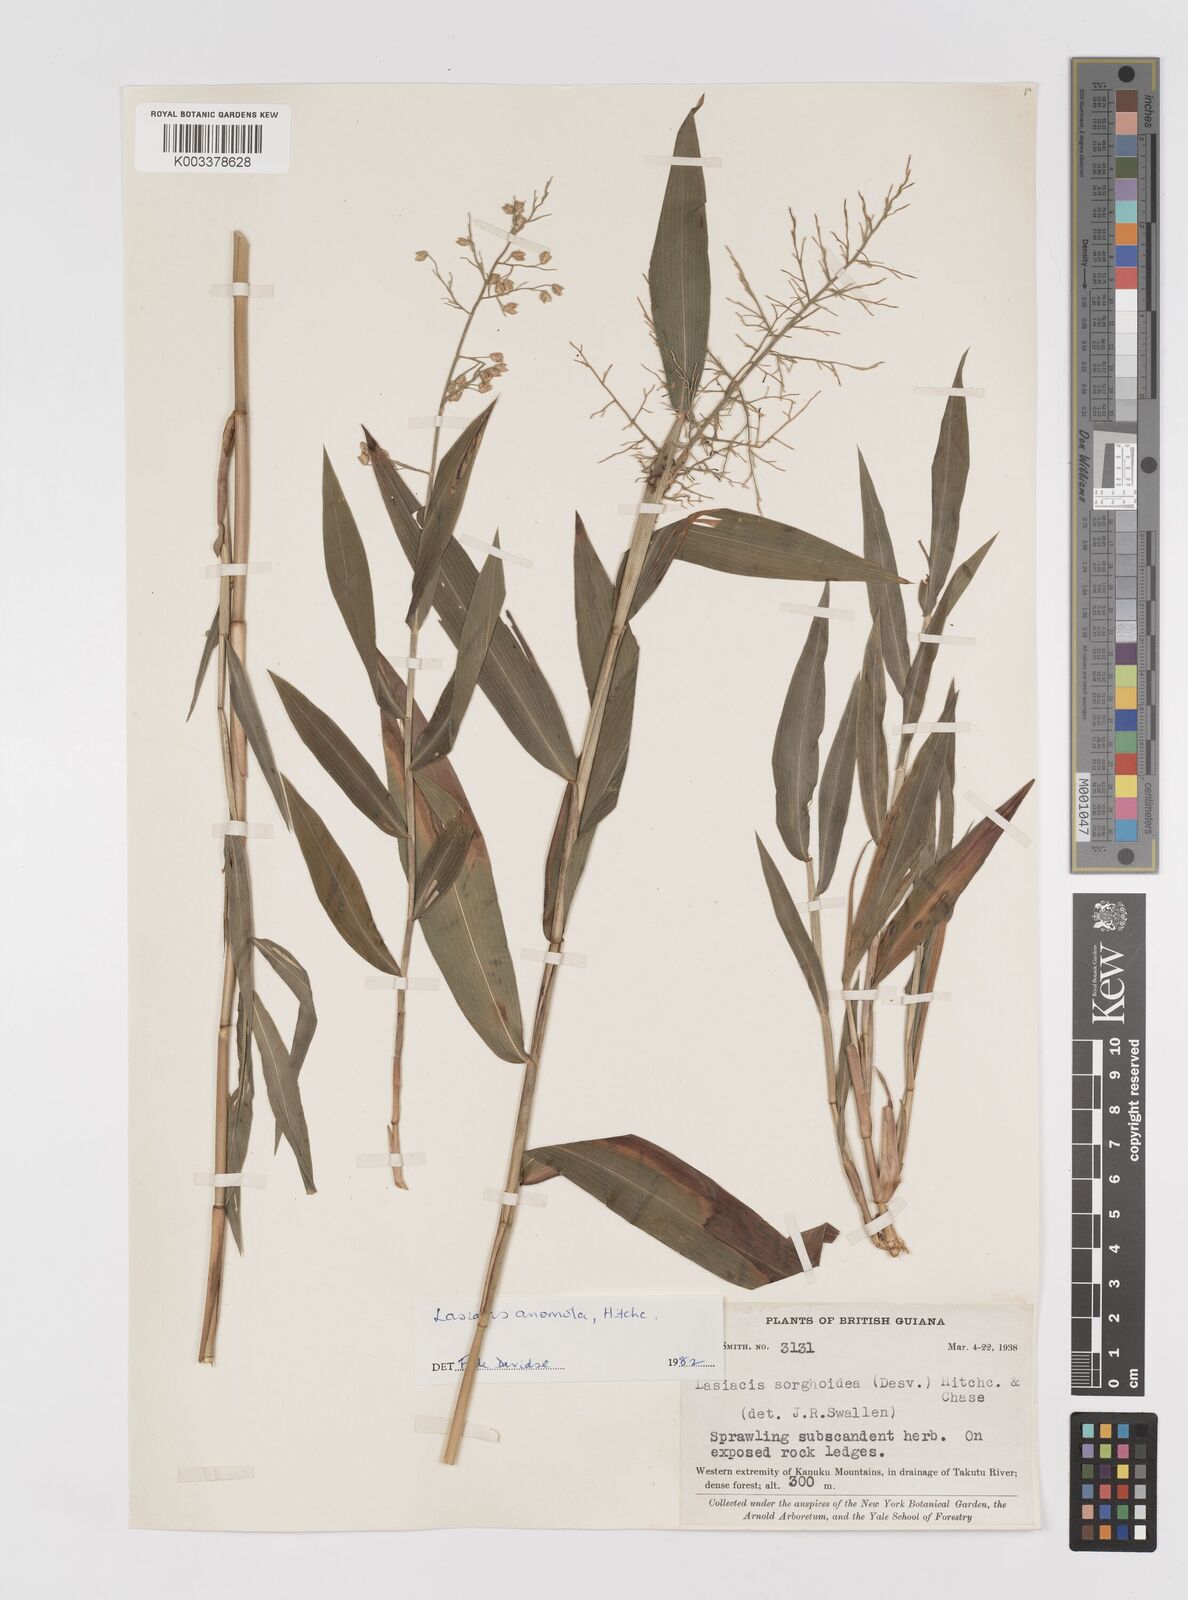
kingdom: Plantae
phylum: Tracheophyta
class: Liliopsida
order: Poales
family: Poaceae
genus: Lasiacis
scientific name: Lasiacis anomala
